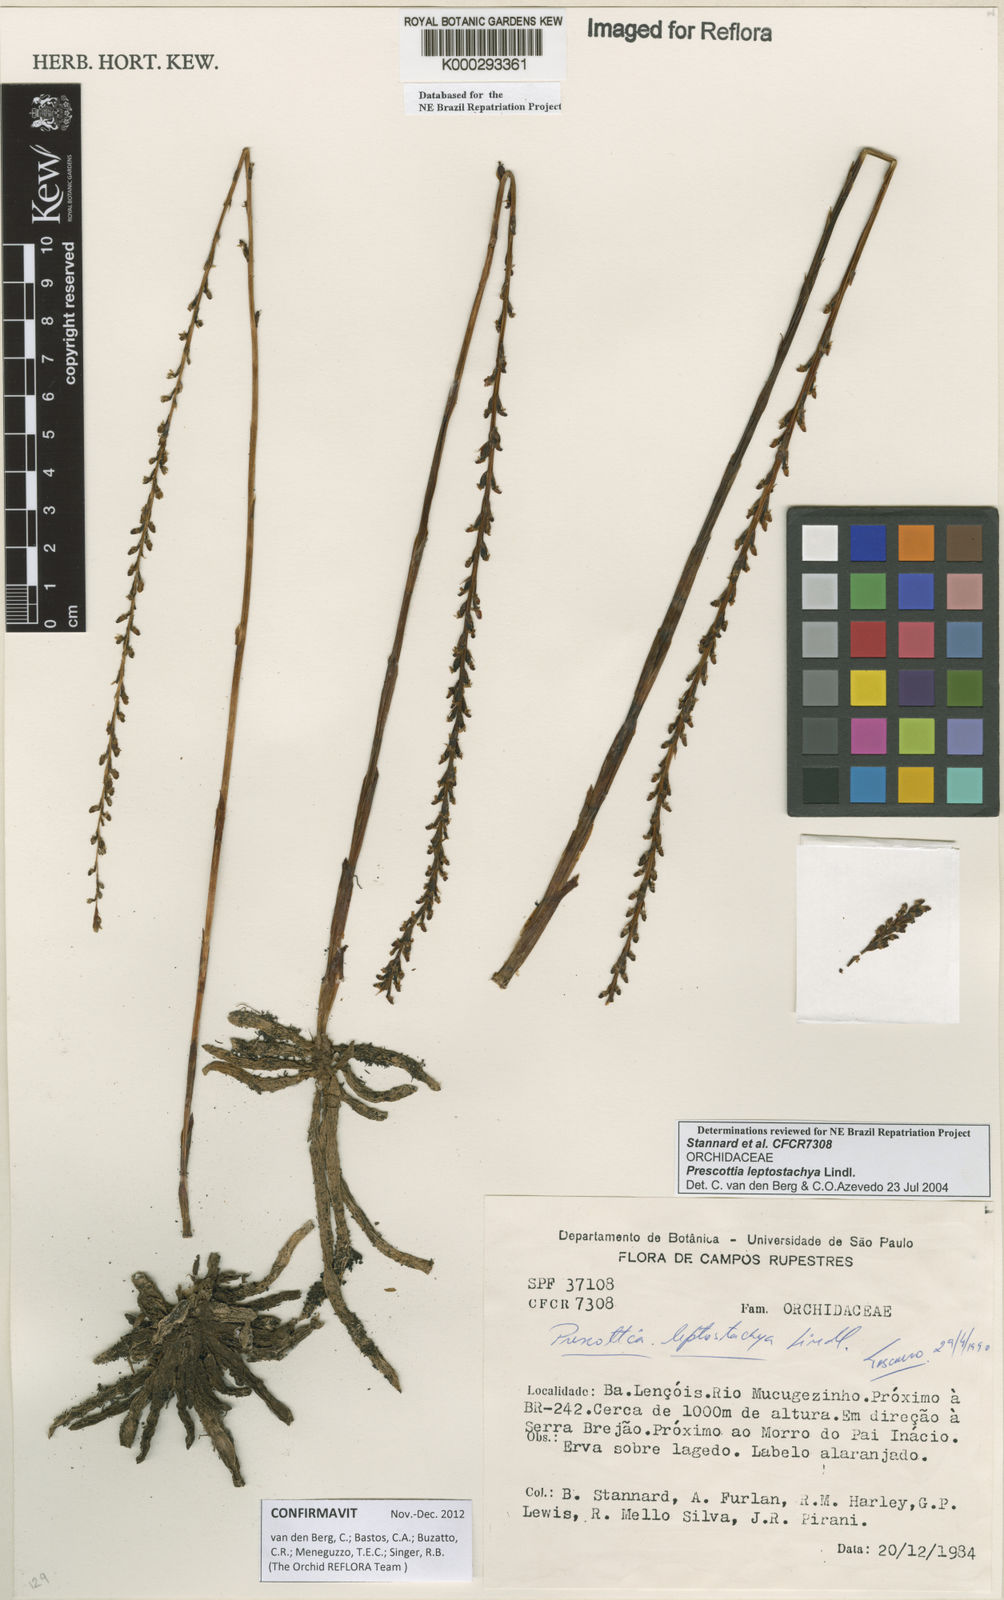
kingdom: Plantae
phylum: Tracheophyta
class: Liliopsida
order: Asparagales
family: Orchidaceae
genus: Prescottia
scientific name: Prescottia leptostachya
